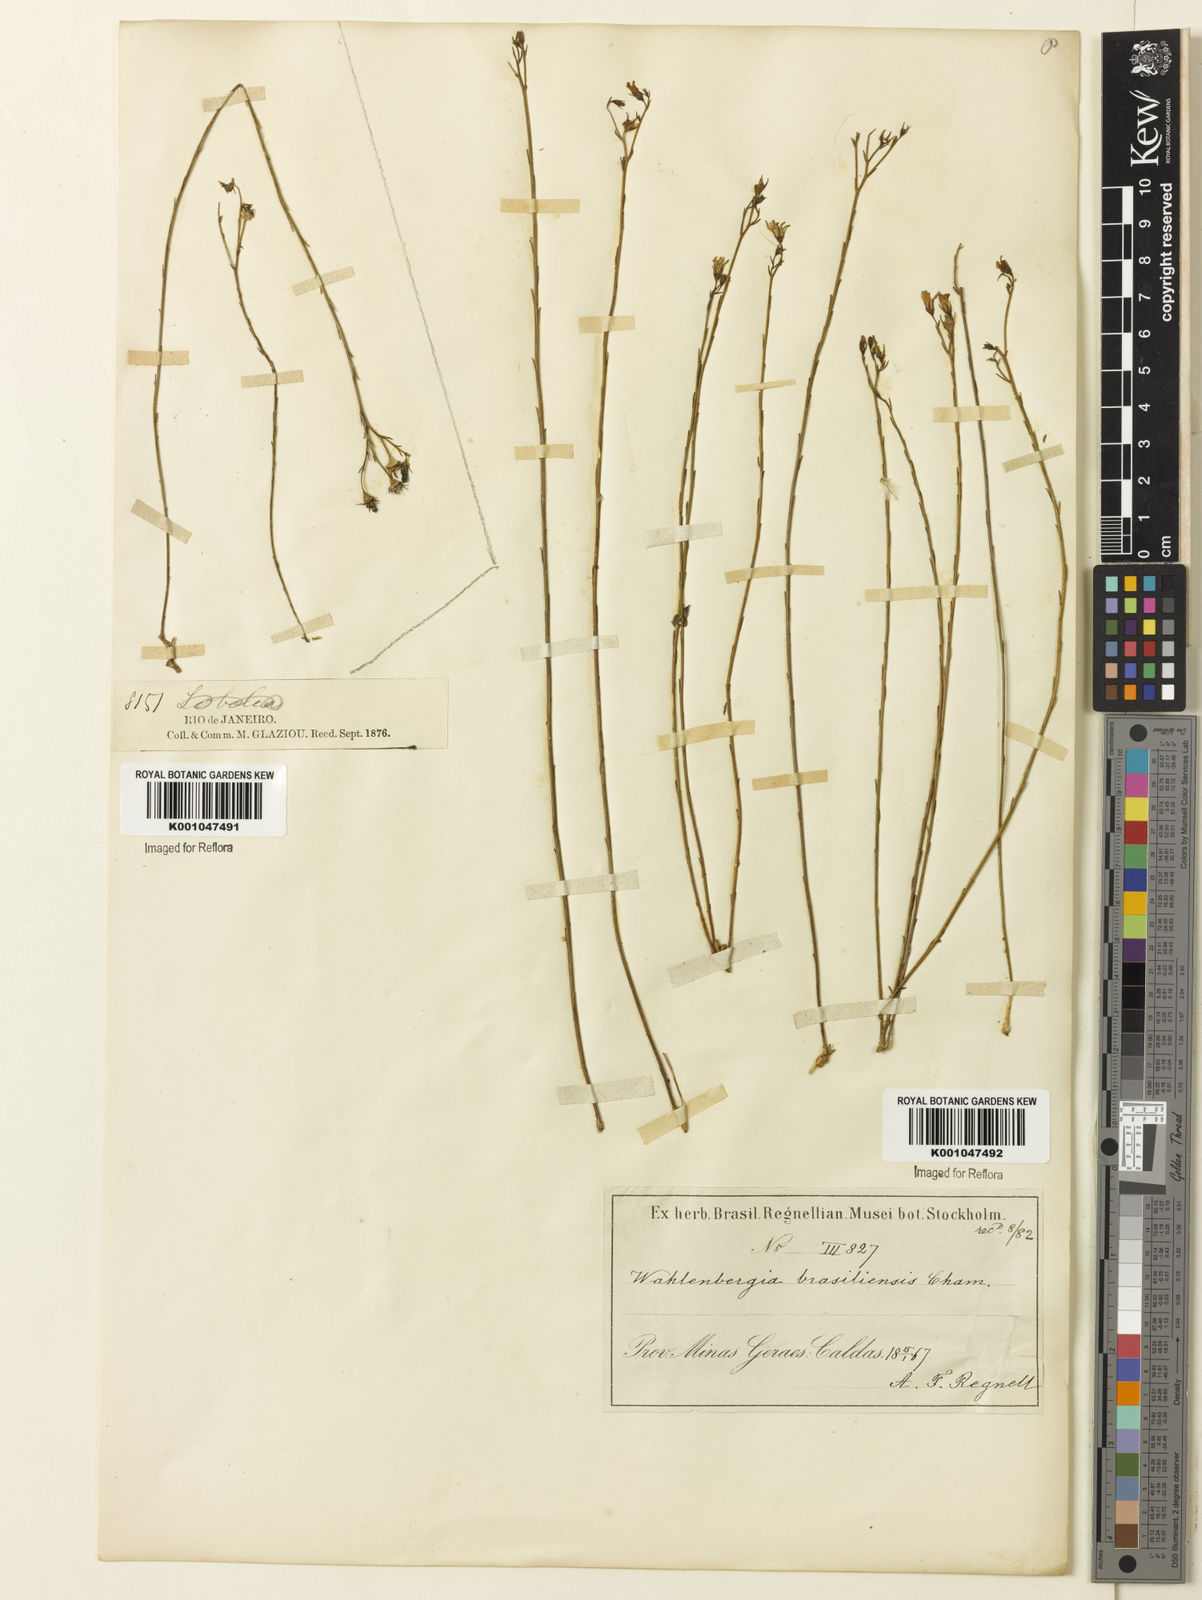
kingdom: Plantae
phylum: Tracheophyta
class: Magnoliopsida
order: Asterales
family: Campanulaceae
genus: Wahlenbergia
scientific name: Wahlenbergia brasiliensis
